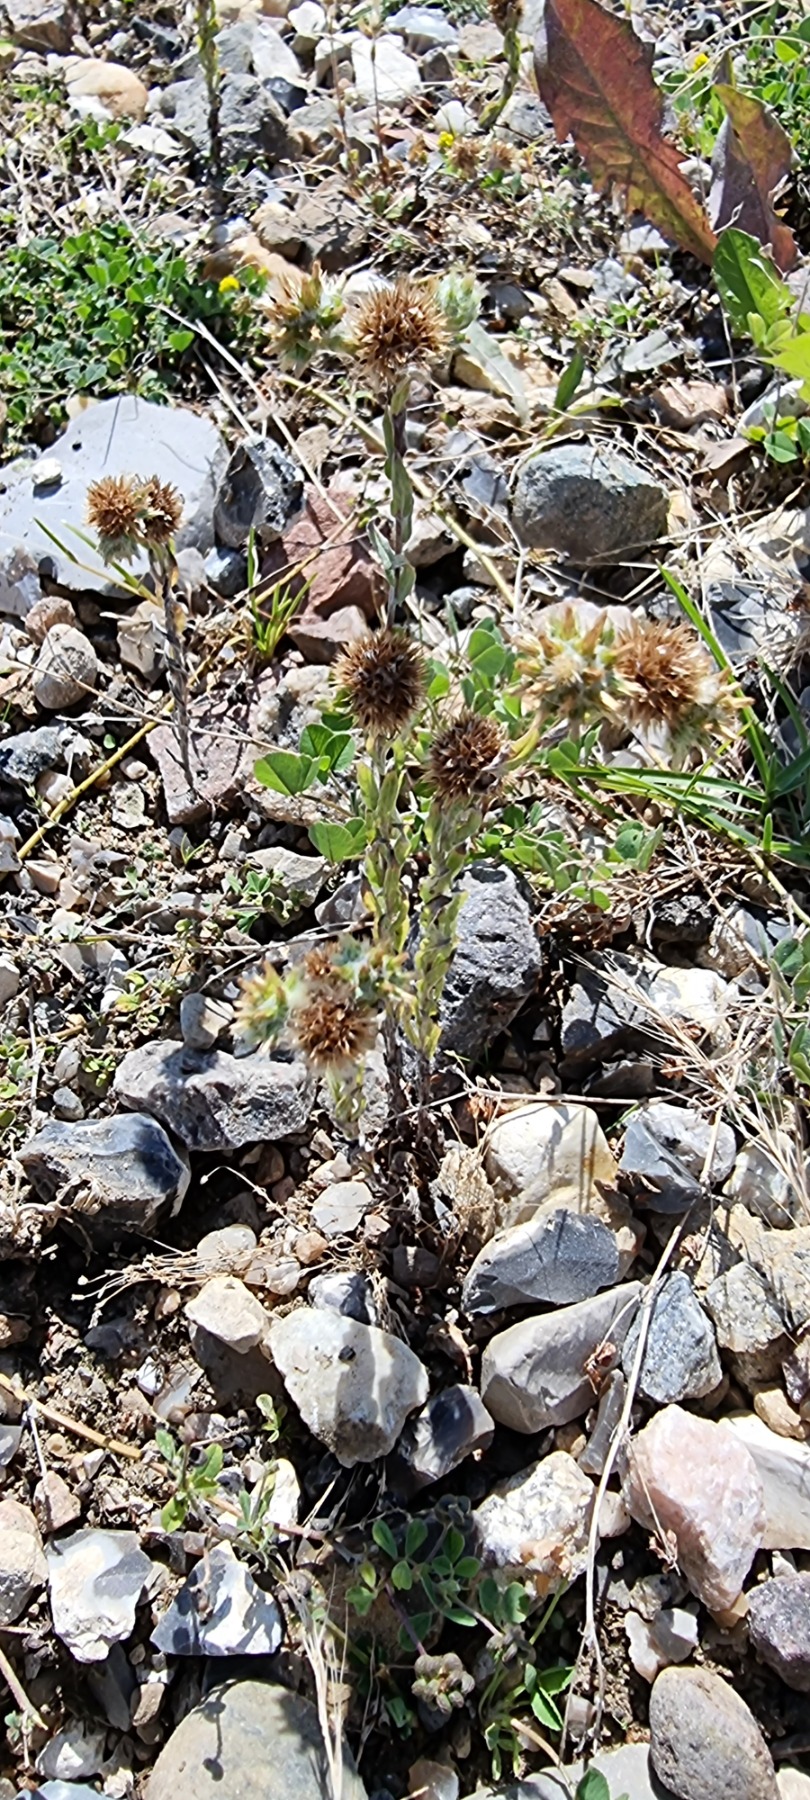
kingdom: Plantae
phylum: Tracheophyta
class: Magnoliopsida
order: Asterales
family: Asteraceae
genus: Filago
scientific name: Filago germanica
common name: Kugle-museurt
